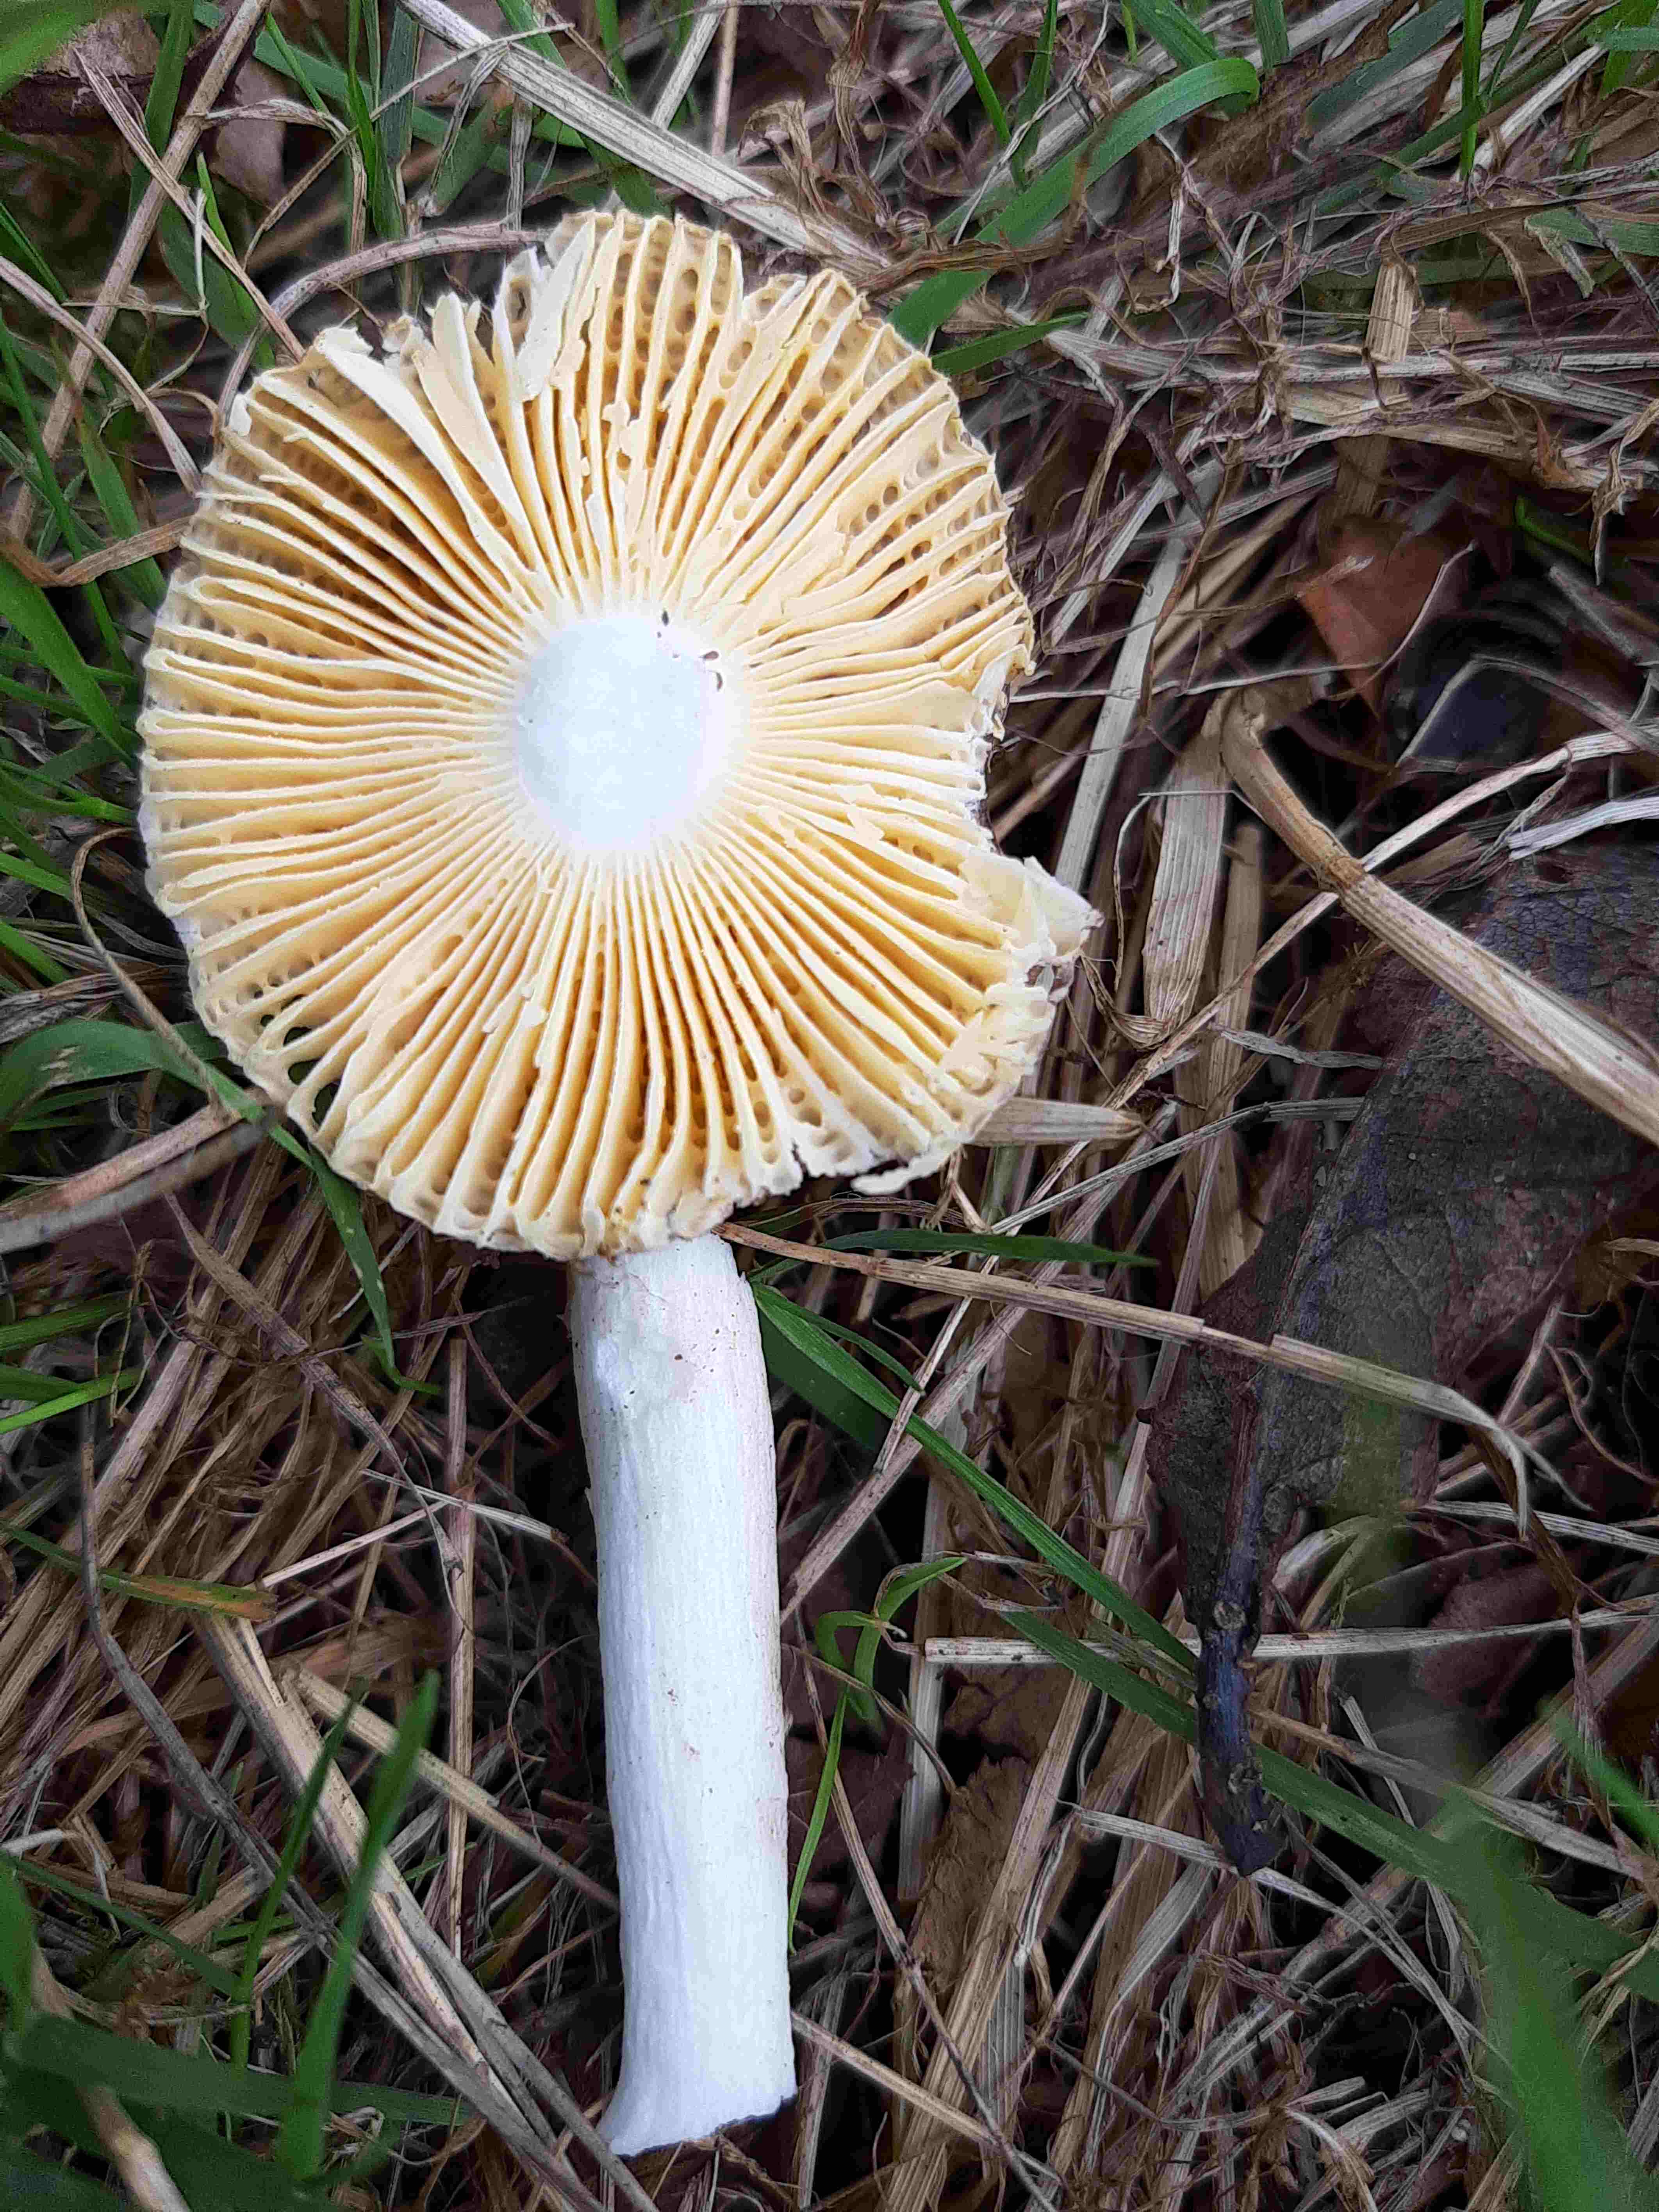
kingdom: Fungi
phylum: Basidiomycota
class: Agaricomycetes
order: Russulales
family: Russulaceae
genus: Russula
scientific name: Russula
